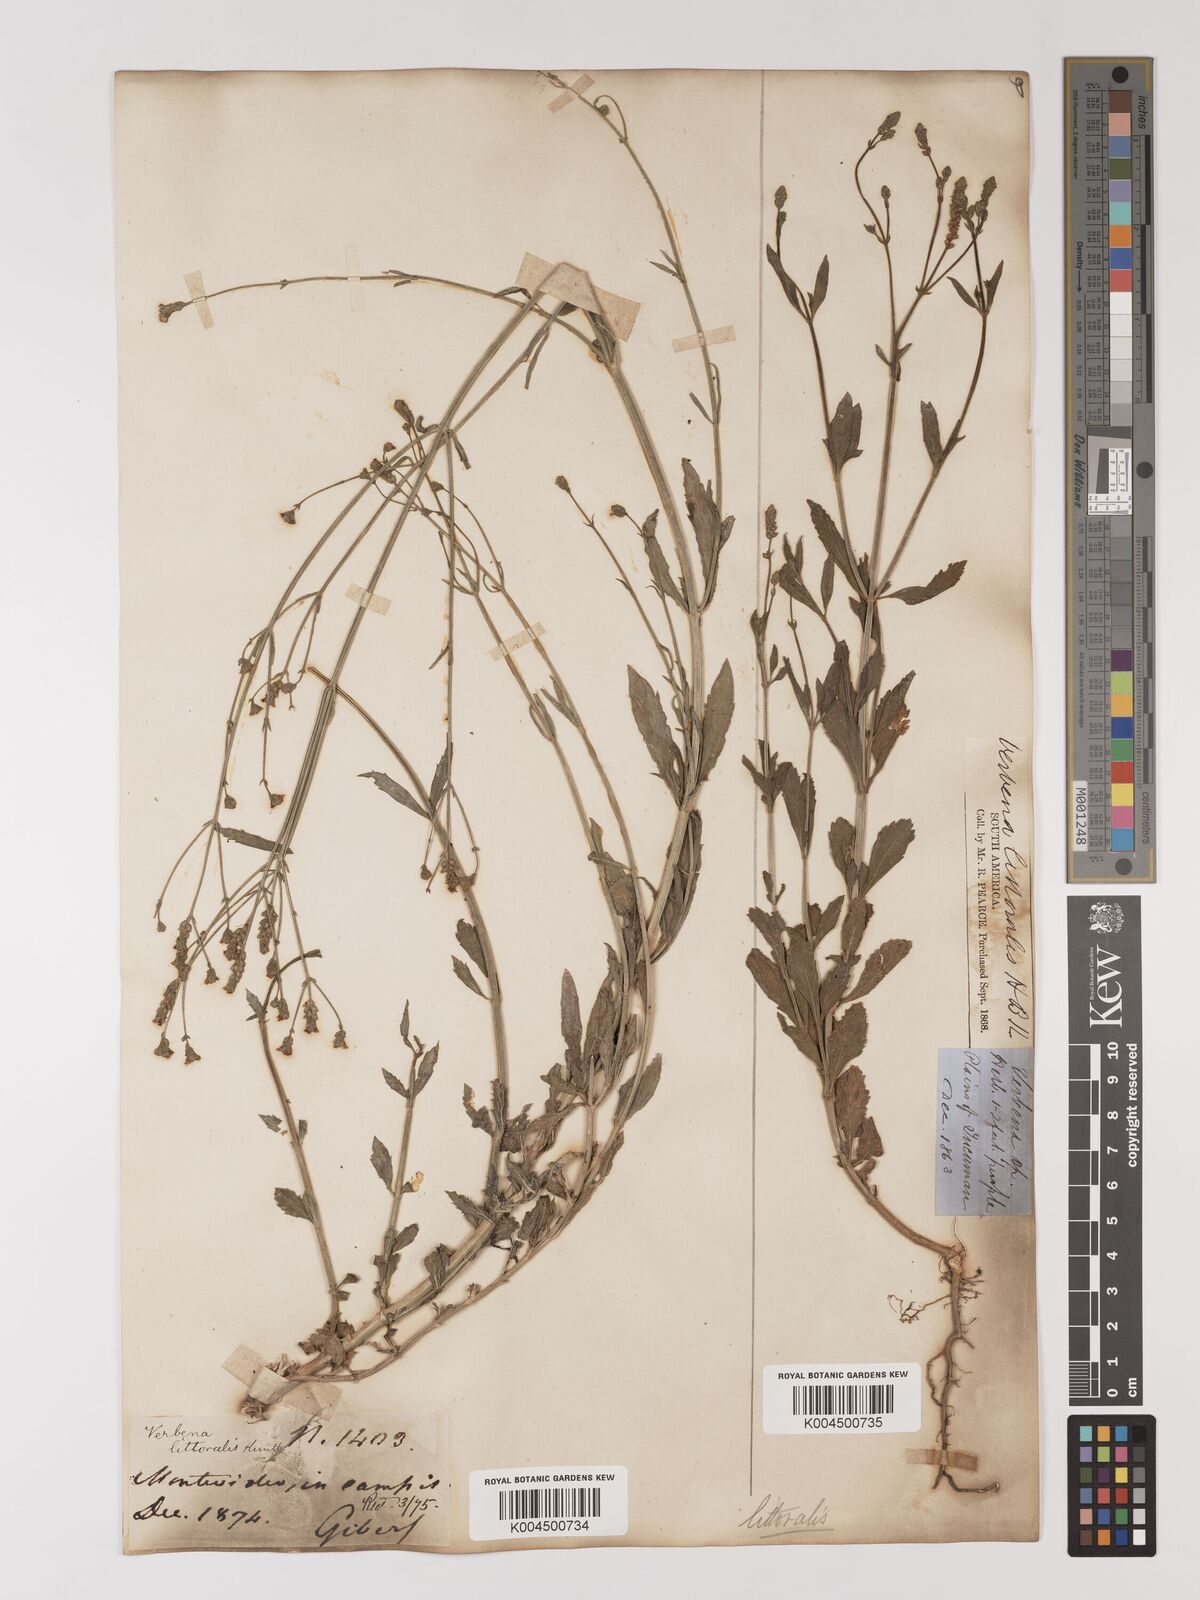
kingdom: Plantae
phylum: Tracheophyta
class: Magnoliopsida
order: Lamiales
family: Verbenaceae
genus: Verbena
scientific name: Verbena litoralis
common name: Seashore vervain
